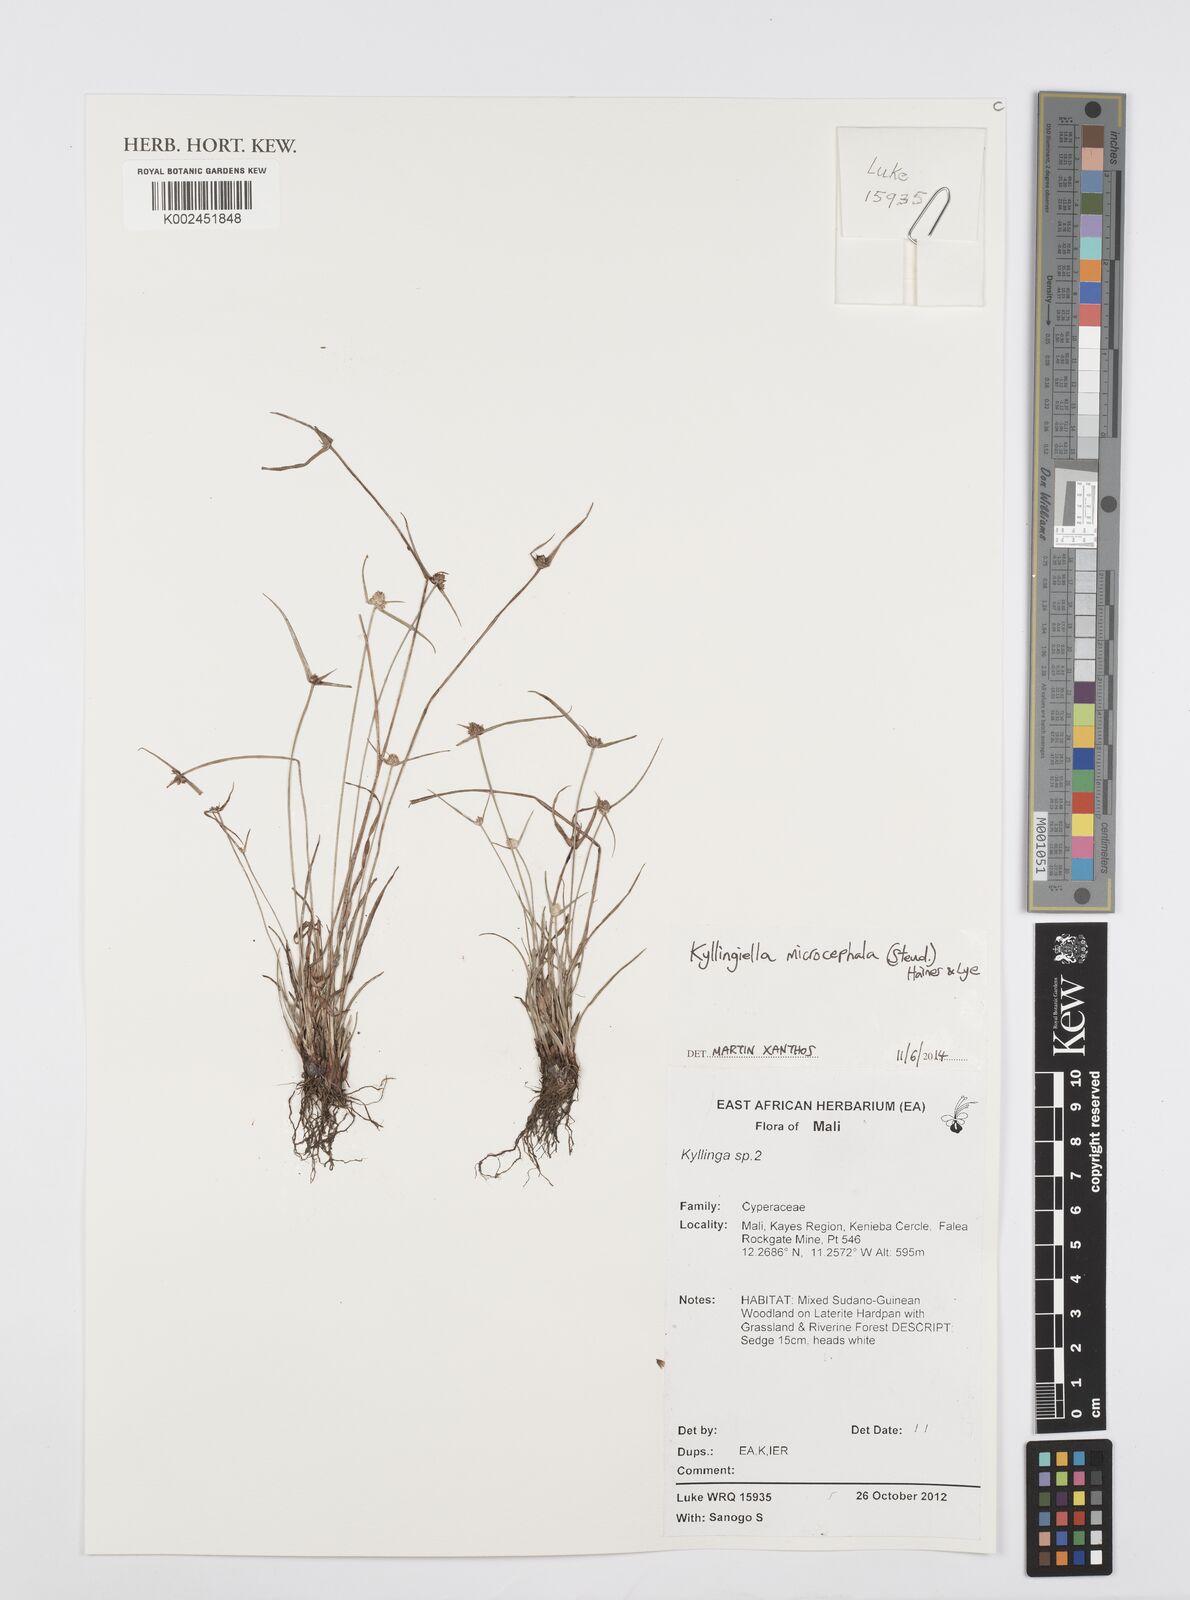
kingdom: Plantae
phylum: Tracheophyta
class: Liliopsida
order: Poales
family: Cyperaceae
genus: Cyperus
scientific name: Cyperus microcephalus
